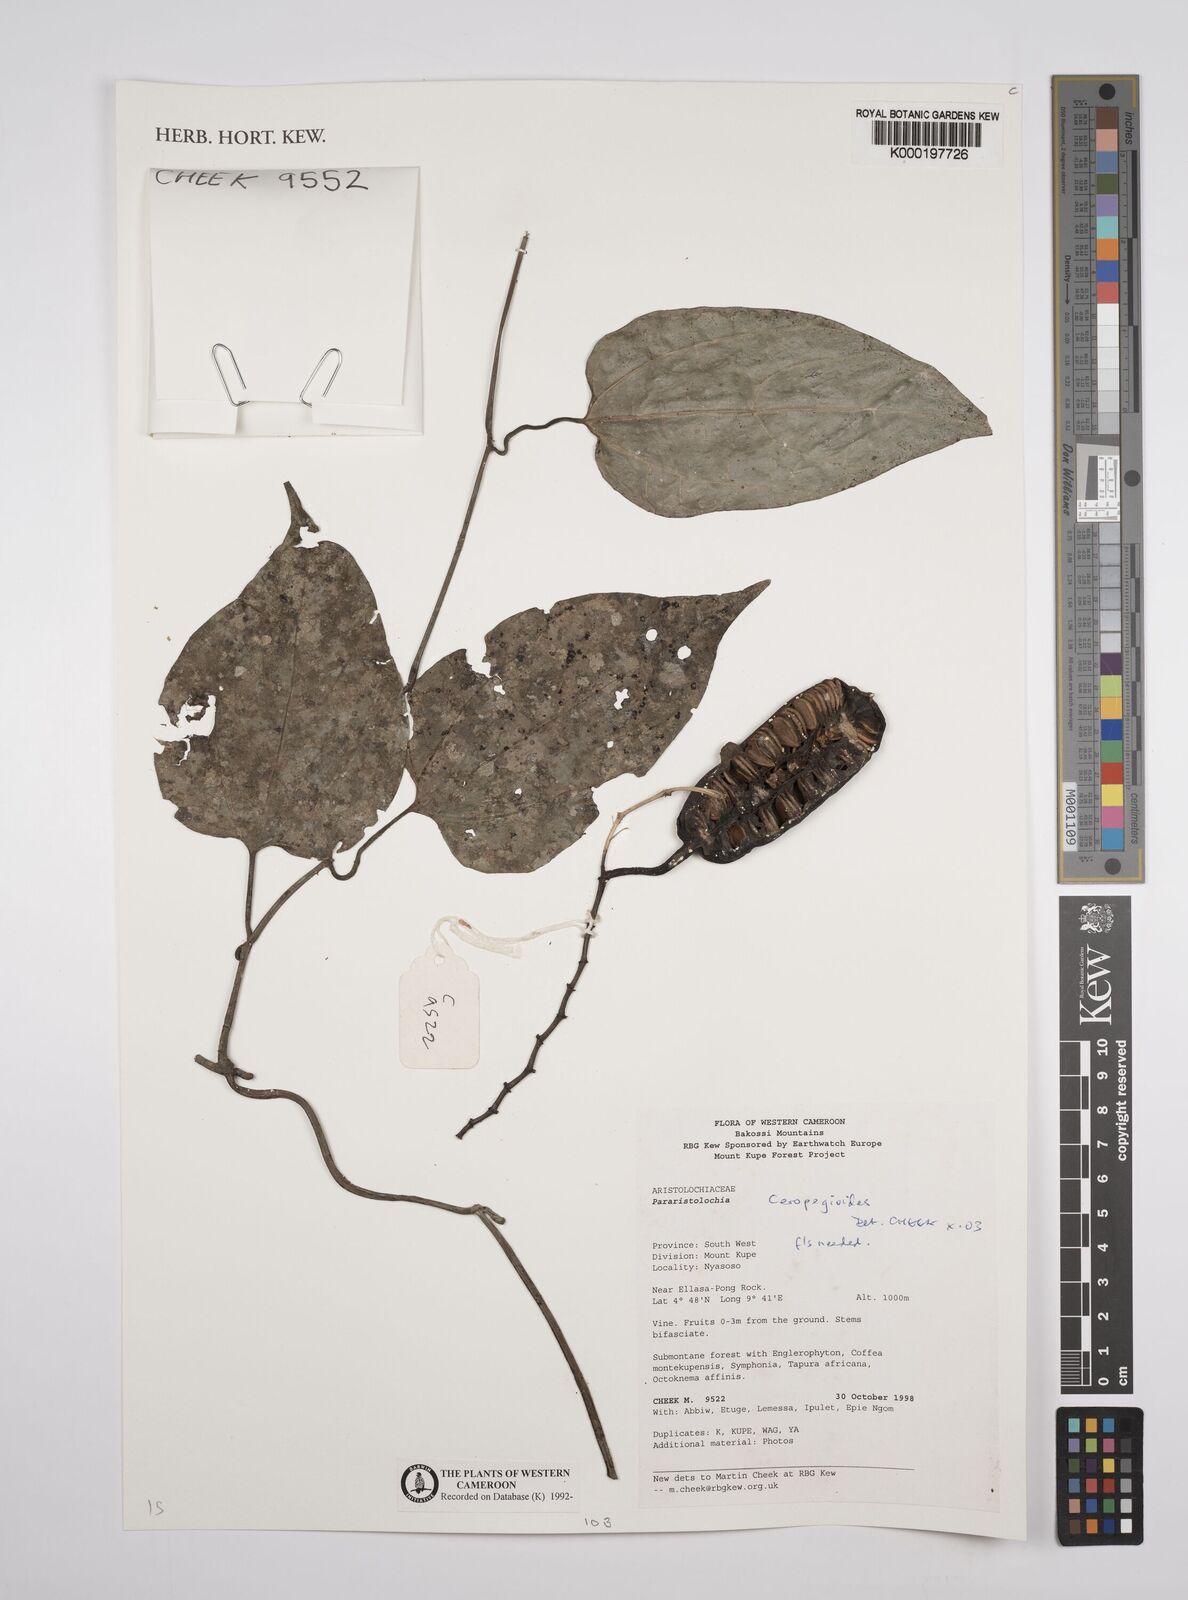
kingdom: Plantae
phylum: Tracheophyta
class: Magnoliopsida
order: Piperales
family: Aristolochiaceae
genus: Aristolochia
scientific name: Aristolochia ceropegioides
